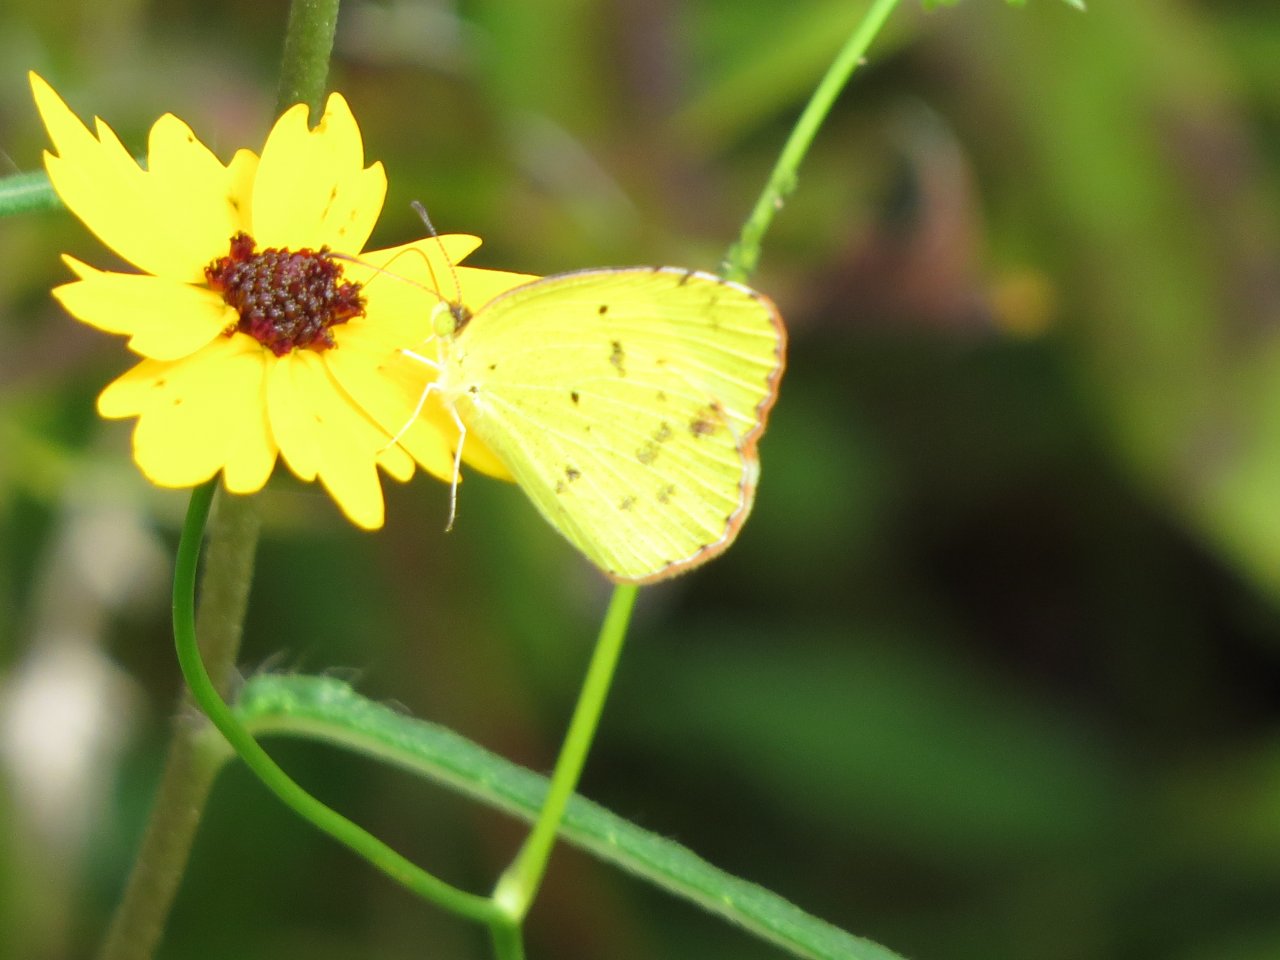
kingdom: Animalia
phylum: Arthropoda
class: Insecta
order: Lepidoptera
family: Pieridae
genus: Pyrisitia
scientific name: Pyrisitia lisa
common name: Little Yellow
